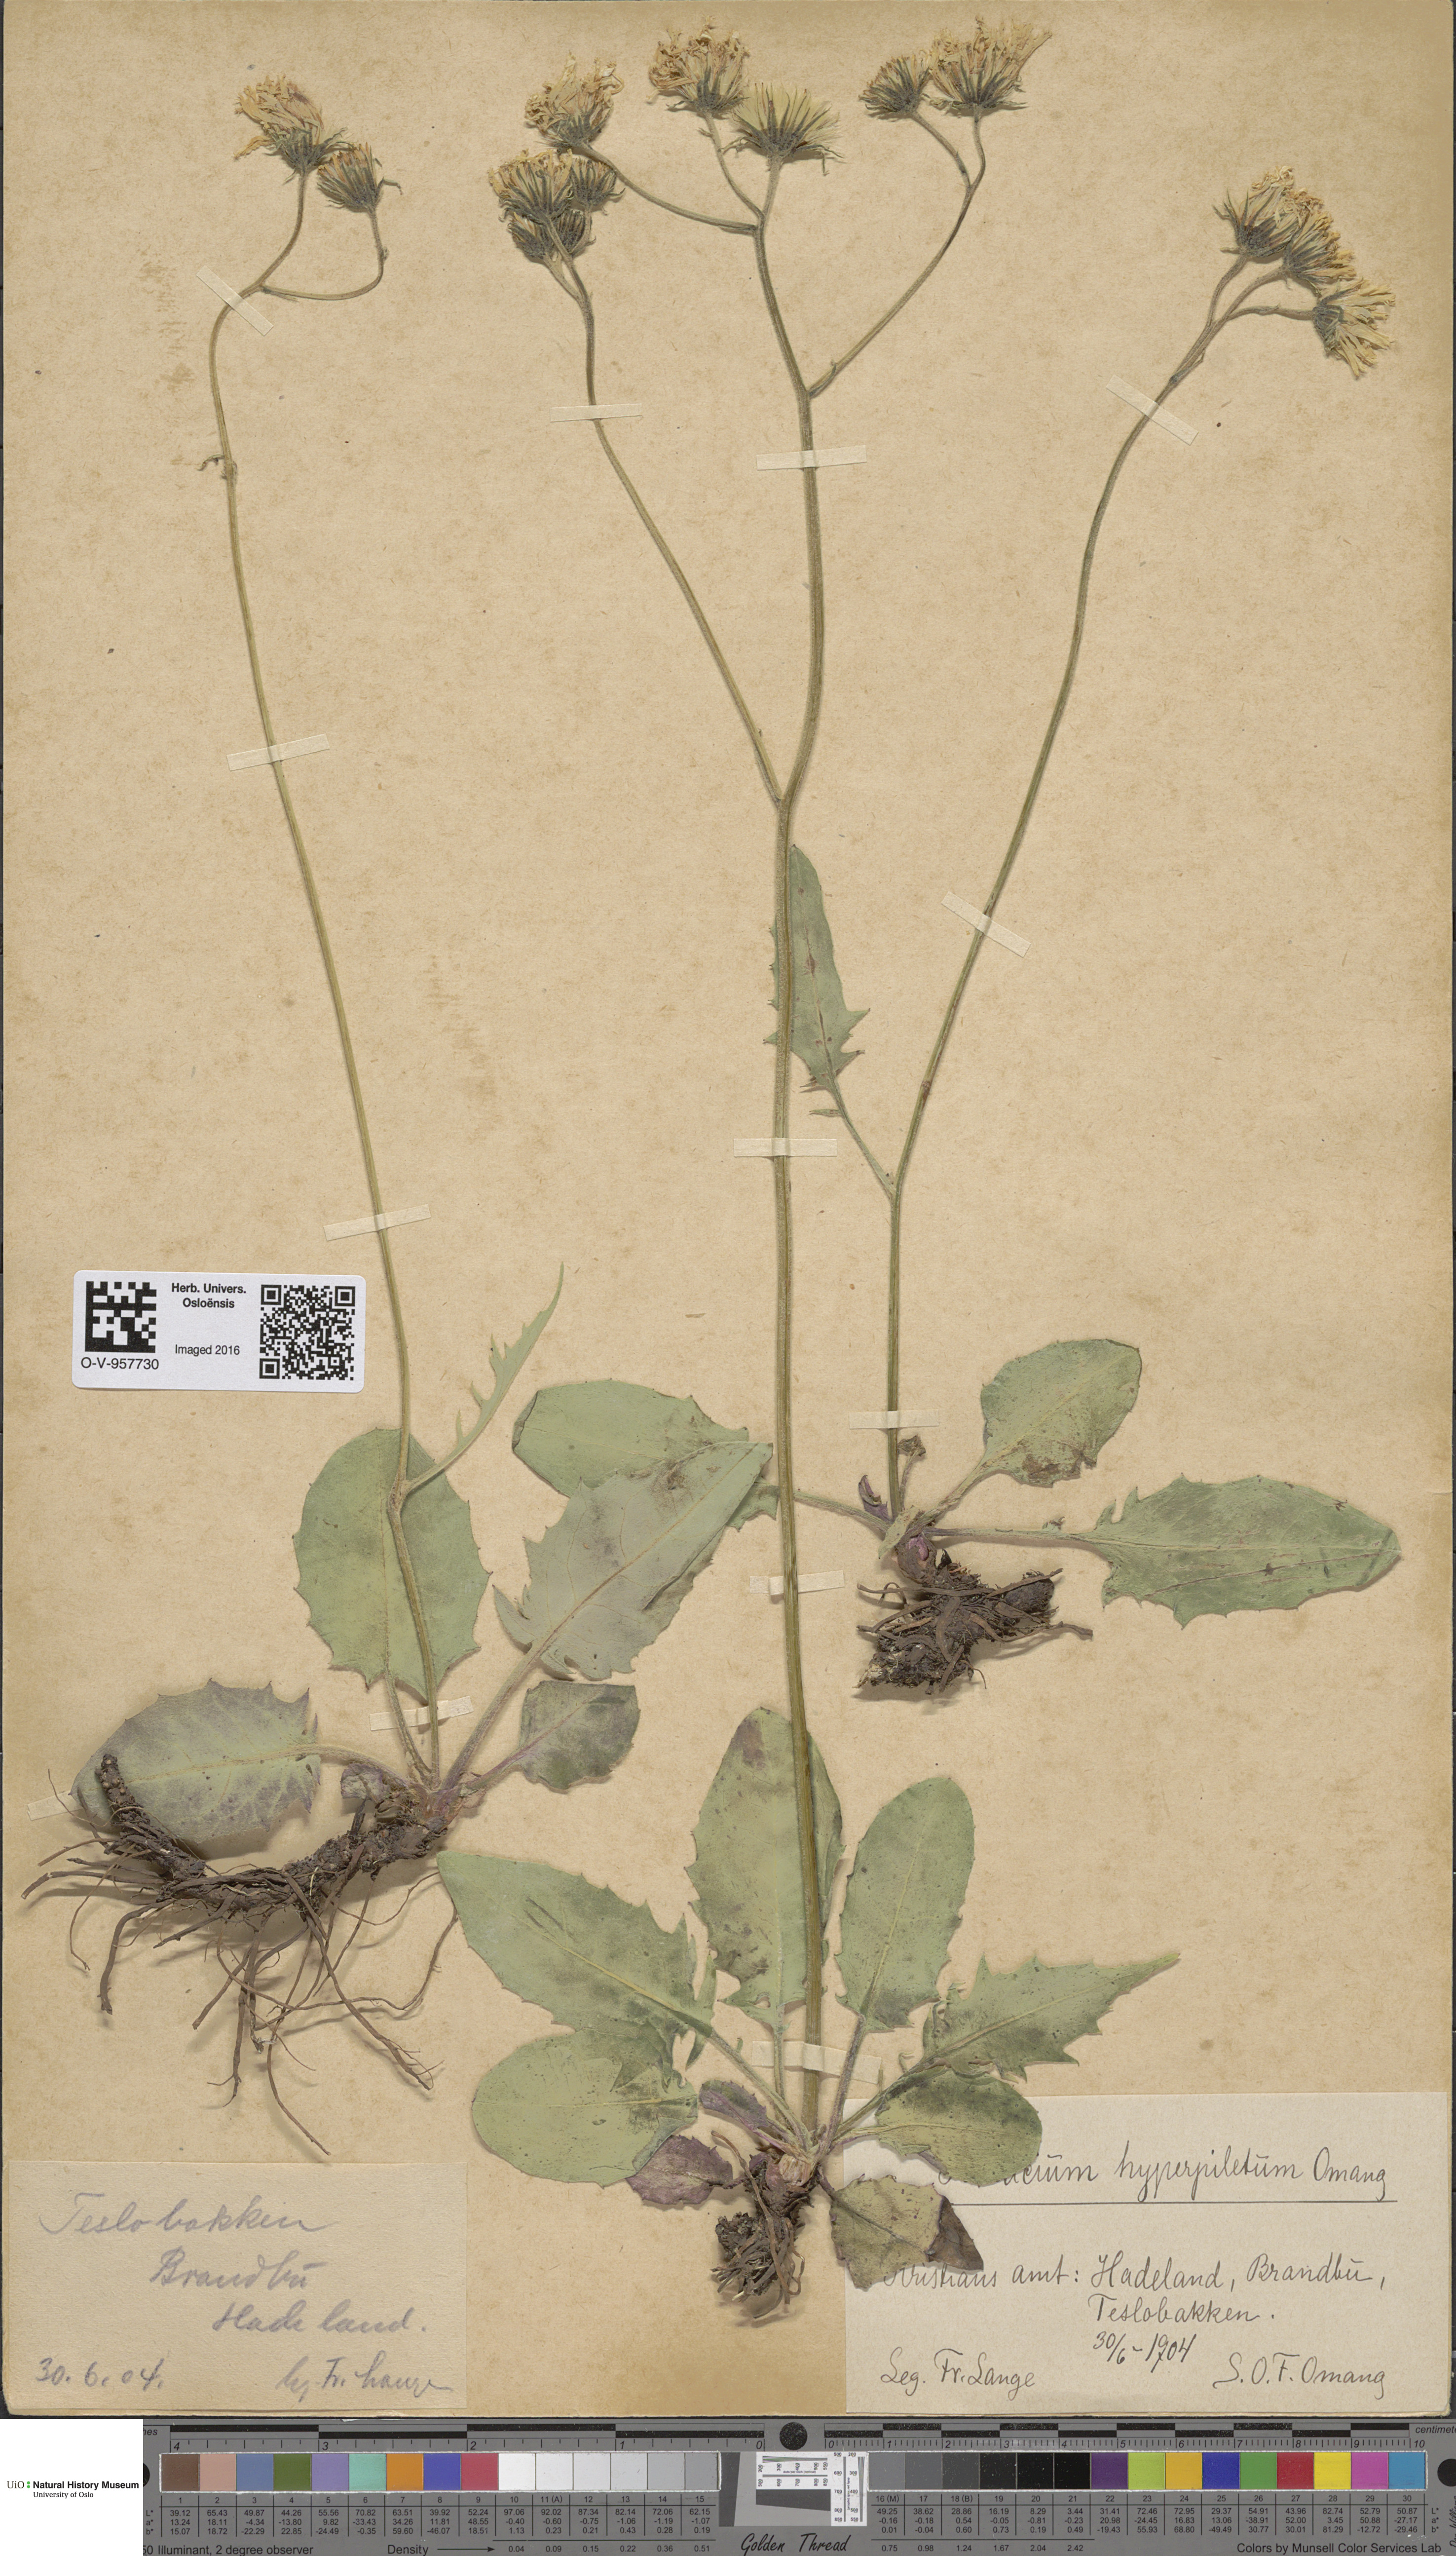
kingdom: Plantae
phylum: Tracheophyta
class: Magnoliopsida
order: Asterales
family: Asteraceae
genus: Hieracium
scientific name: Hieracium
